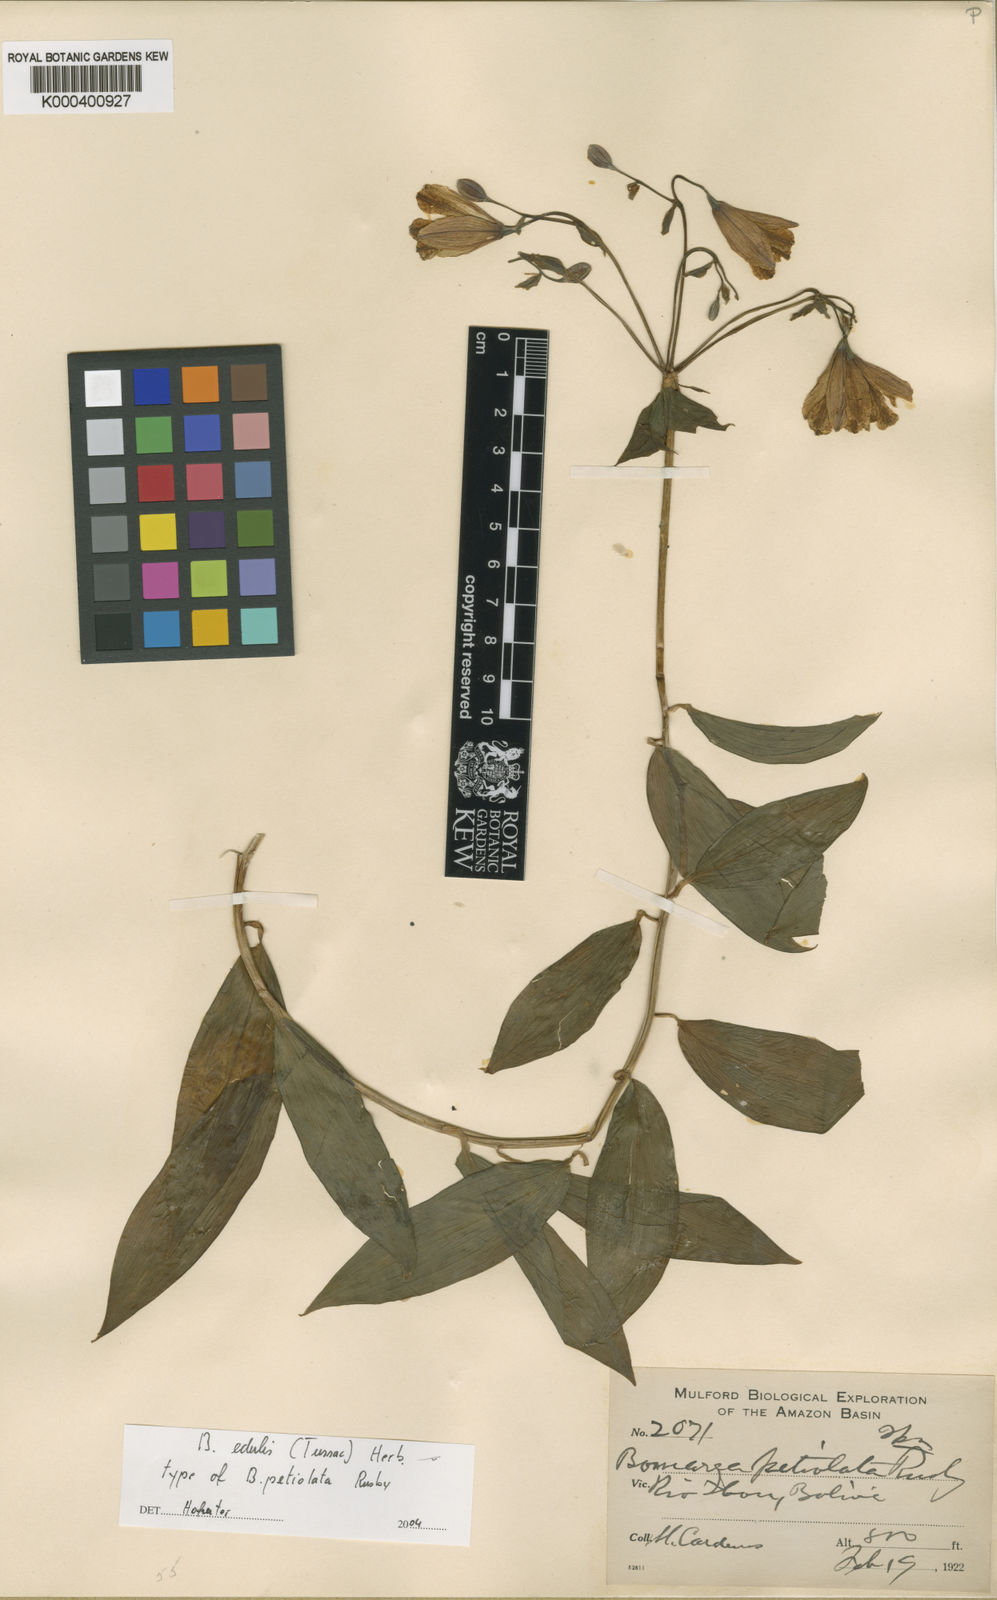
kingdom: Plantae
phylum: Tracheophyta
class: Liliopsida
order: Liliales
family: Alstroemeriaceae
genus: Bomarea
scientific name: Bomarea edulis
